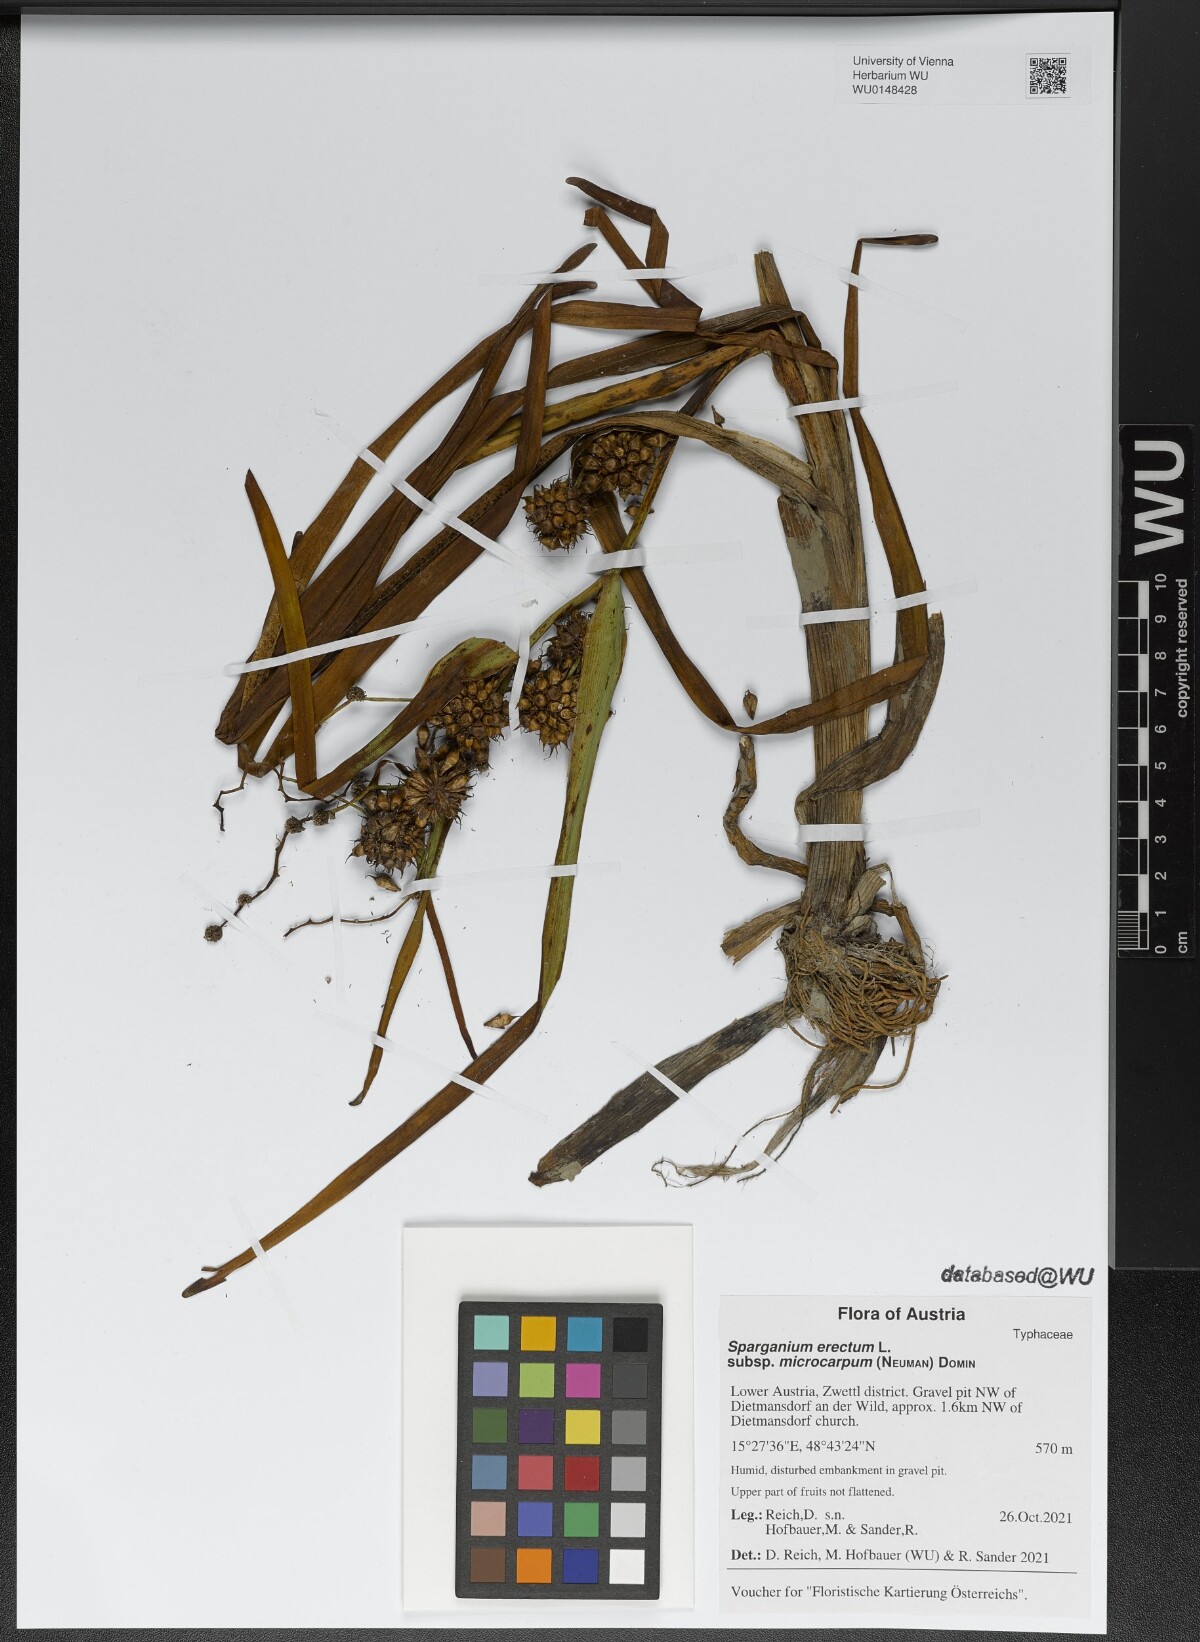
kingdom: Plantae
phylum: Tracheophyta
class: Liliopsida
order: Poales
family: Typhaceae
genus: Sparganium
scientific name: Sparganium erectum
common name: Branched bur-reed
